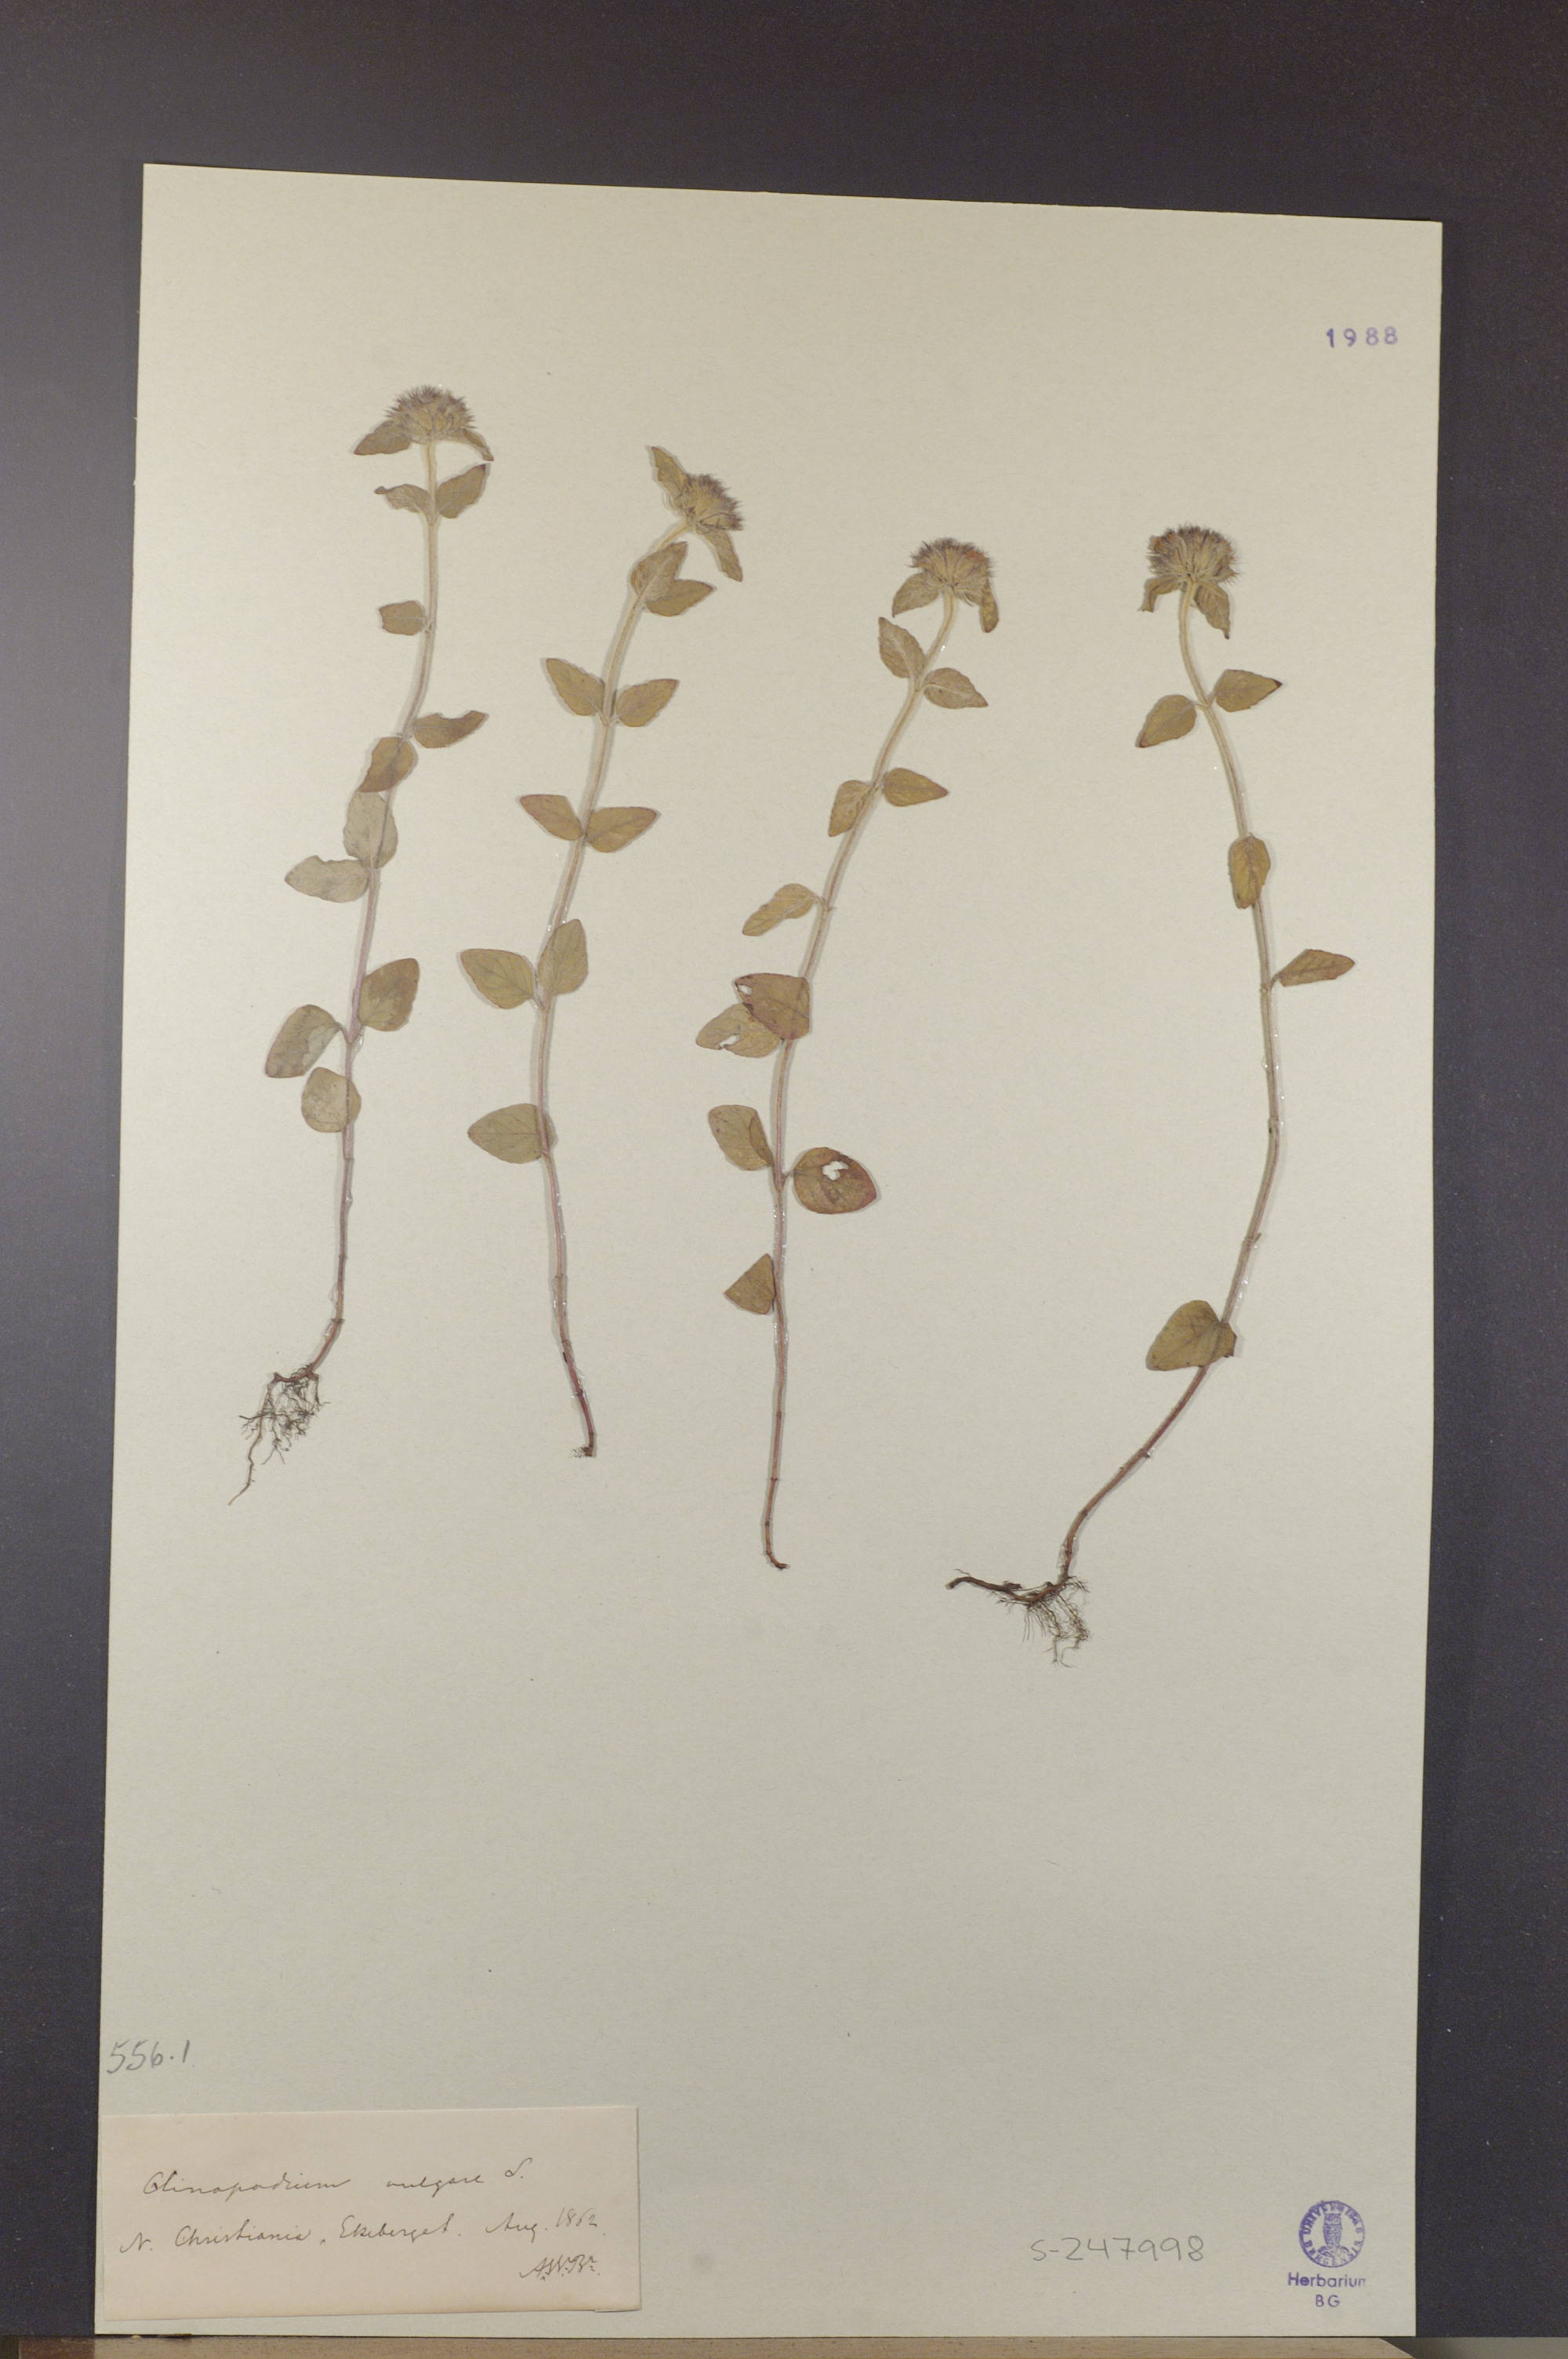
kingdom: Plantae
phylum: Tracheophyta
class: Magnoliopsida
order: Lamiales
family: Lamiaceae
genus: Clinopodium
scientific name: Clinopodium vulgare
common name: Wild basil
